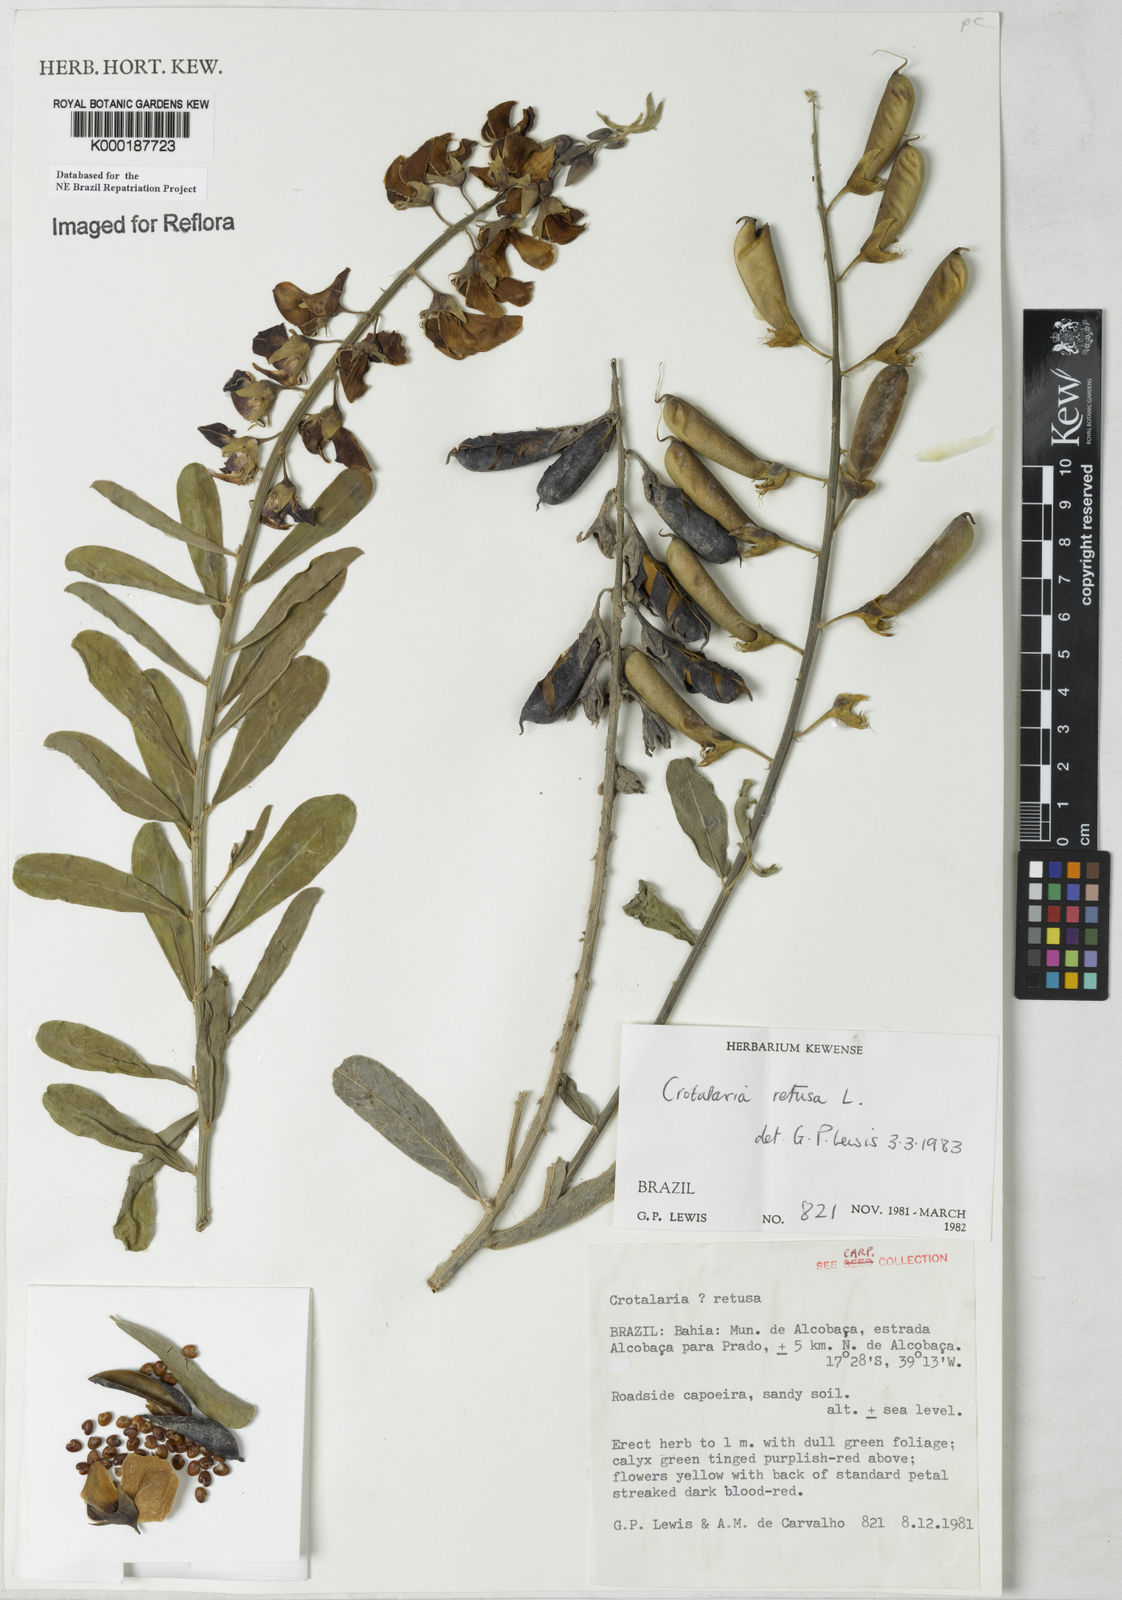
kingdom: Plantae
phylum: Tracheophyta
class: Magnoliopsida
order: Fabales
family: Fabaceae
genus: Crotalaria
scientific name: Crotalaria retusa
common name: Rattleweed
